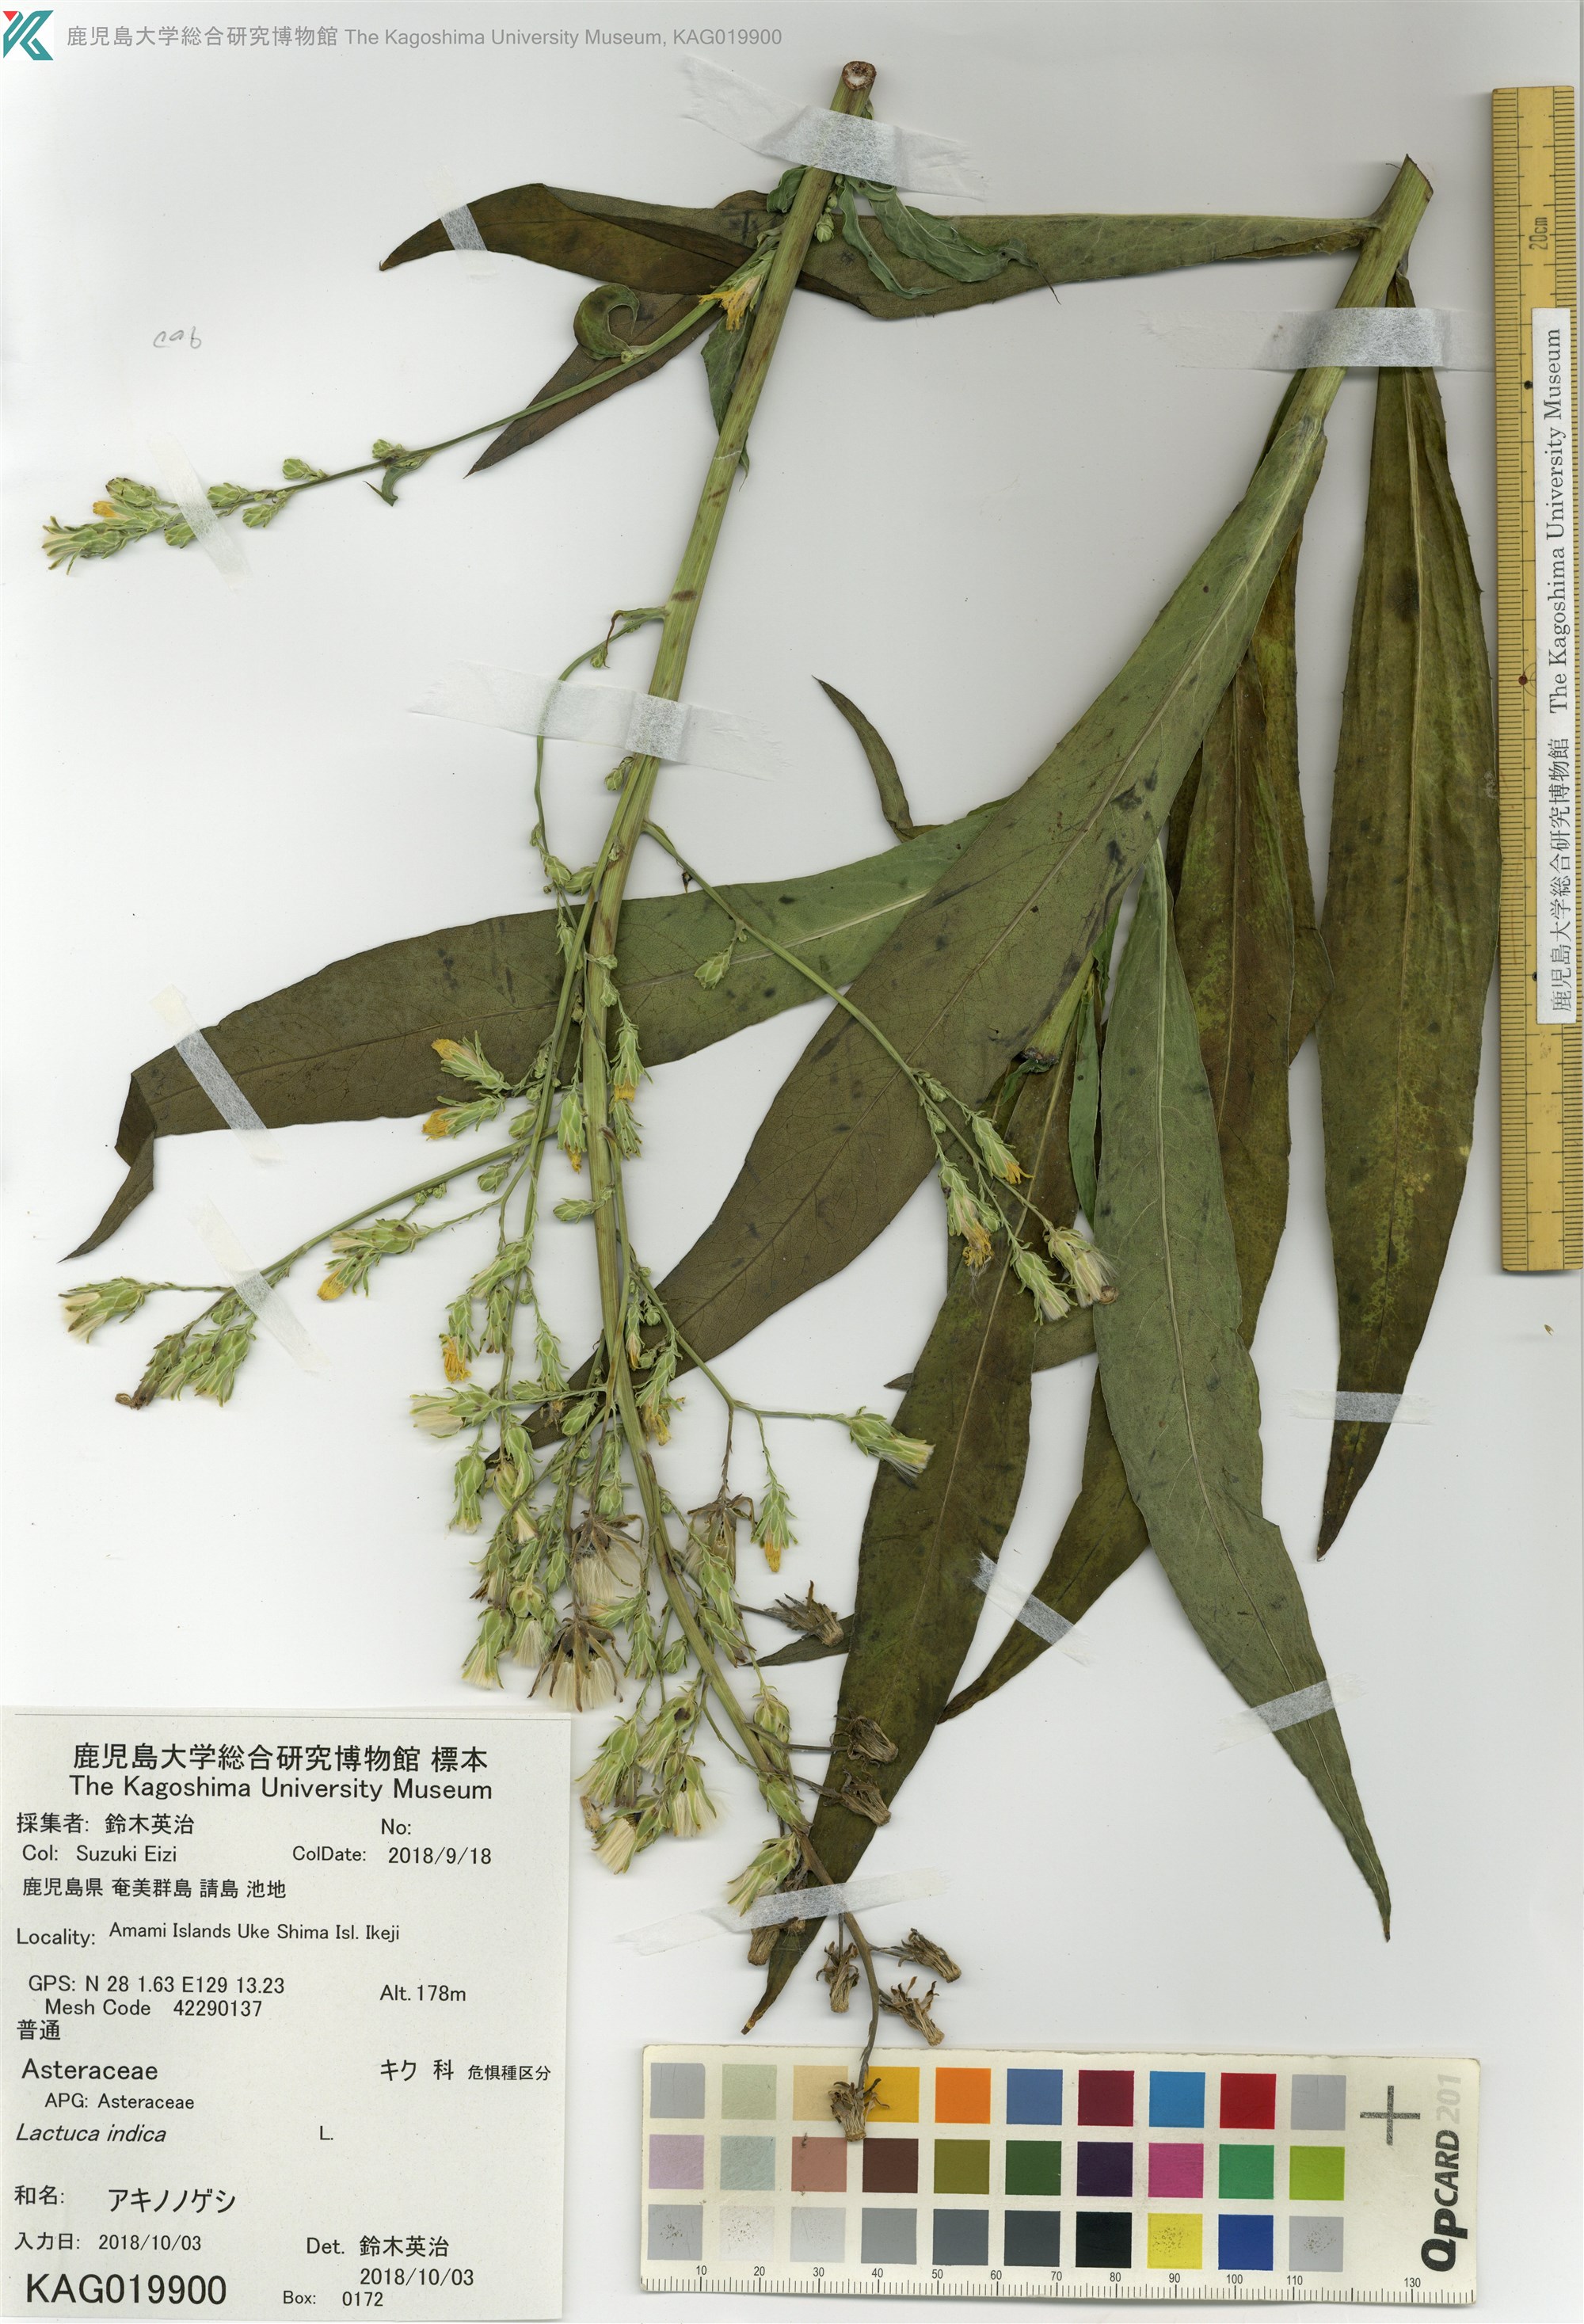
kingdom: Plantae
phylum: Tracheophyta
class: Magnoliopsida
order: Asterales
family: Asteraceae
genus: Lactuca
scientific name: Lactuca indica
